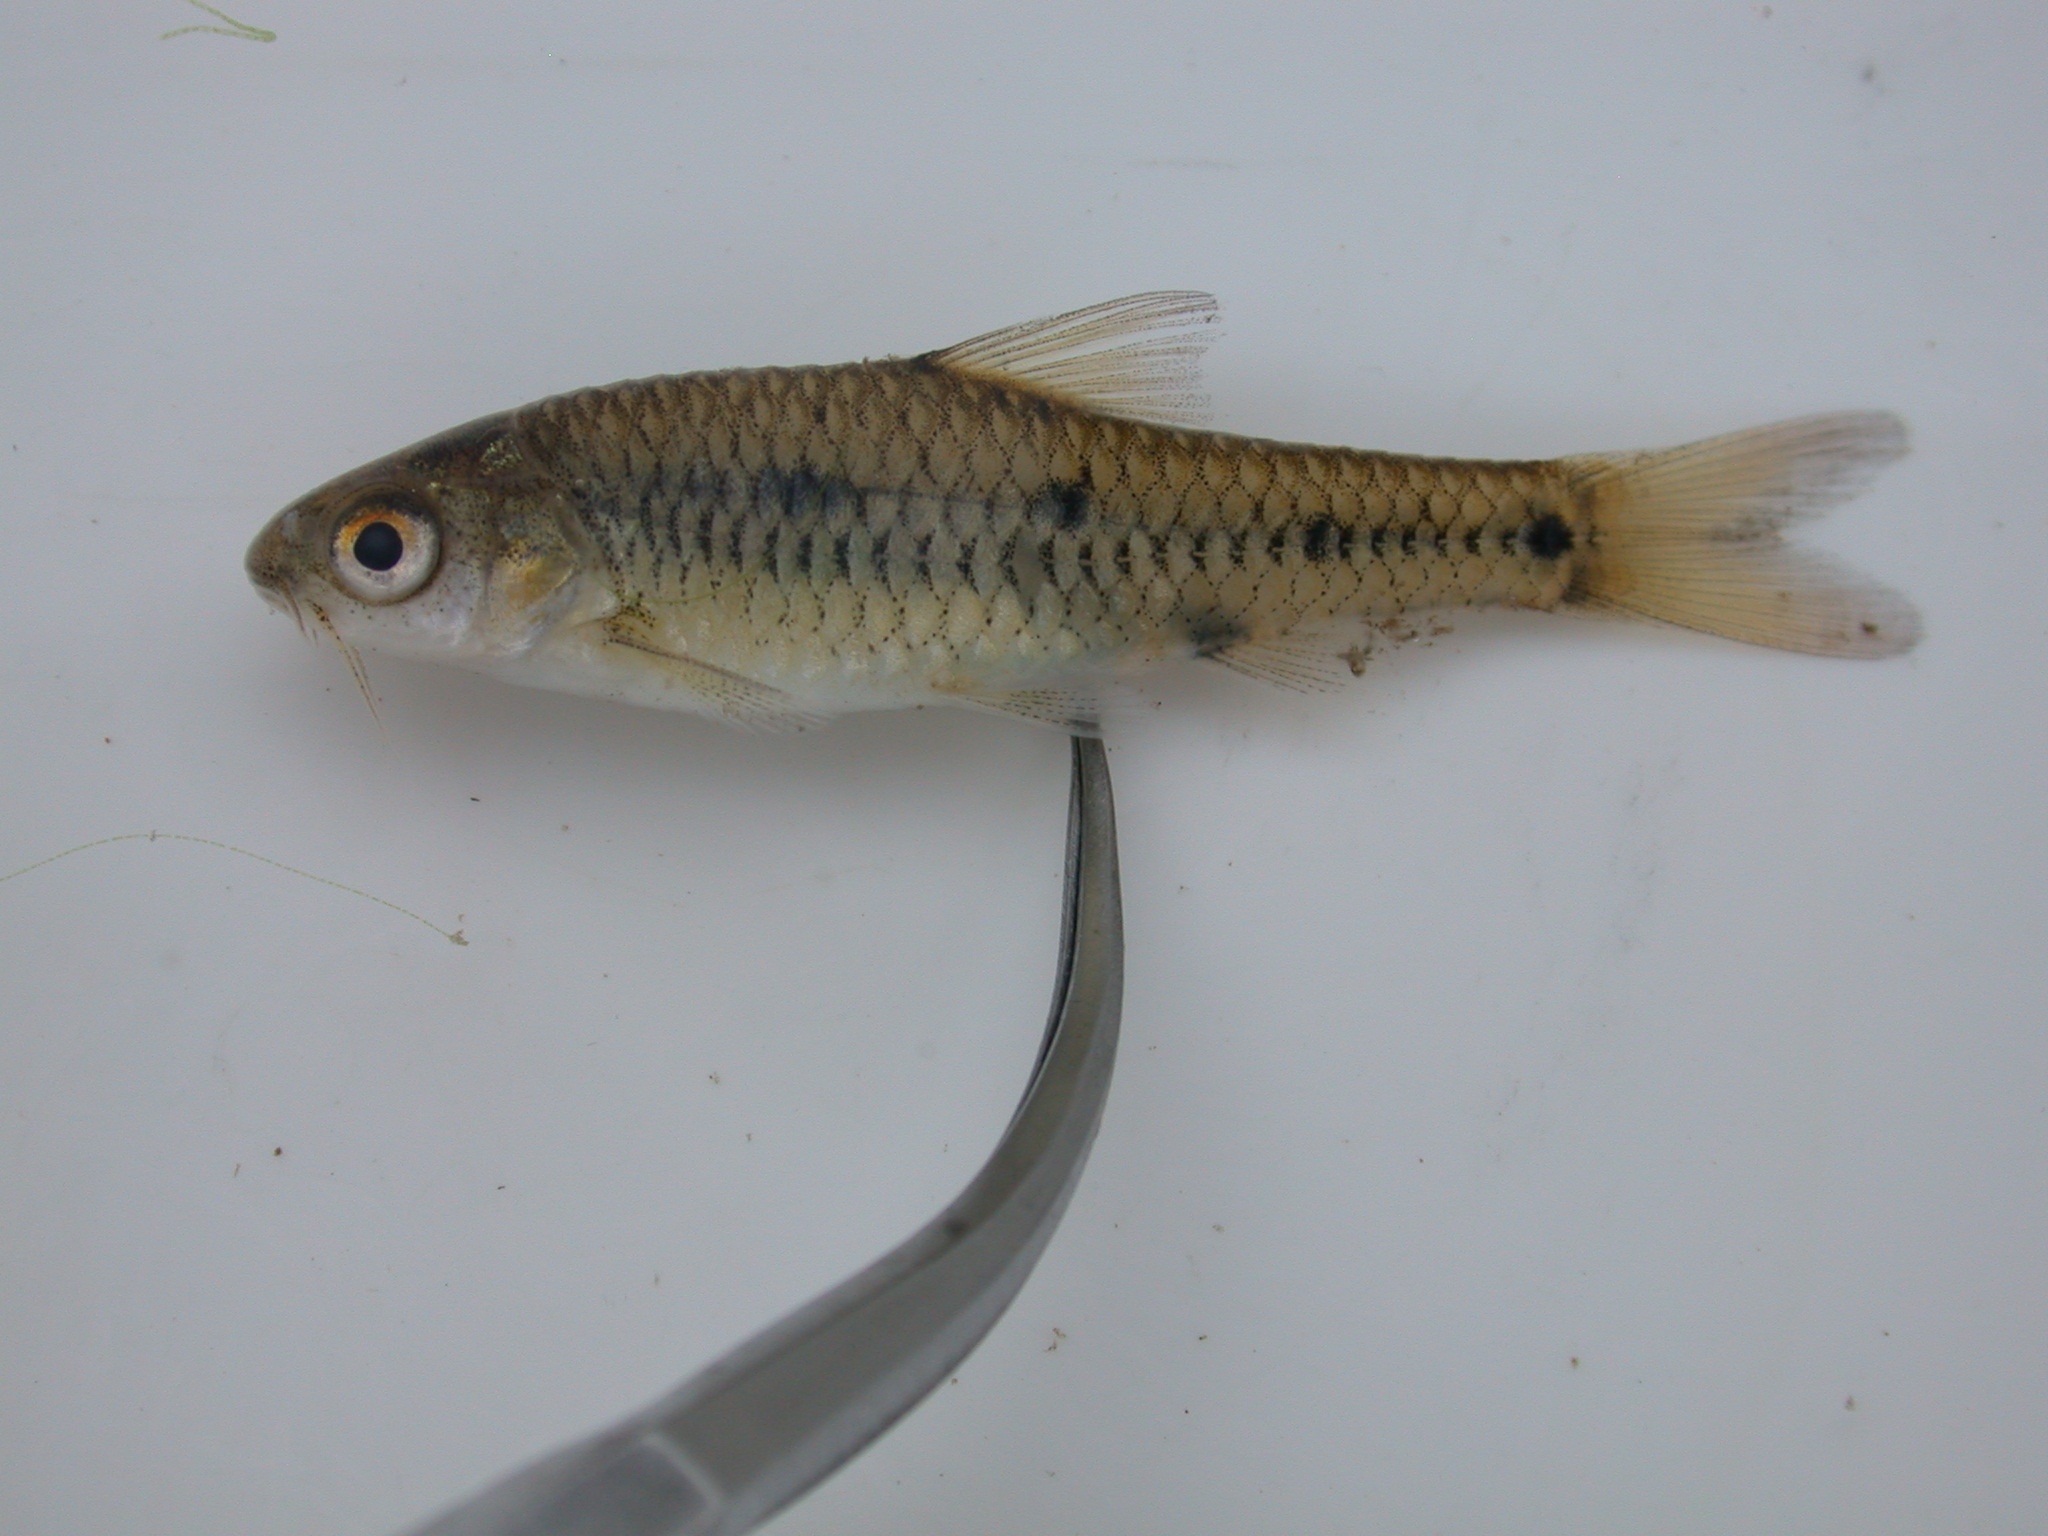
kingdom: Animalia
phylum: Chordata
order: Cypriniformes
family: Cyprinidae
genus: Barbus
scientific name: Barbus
